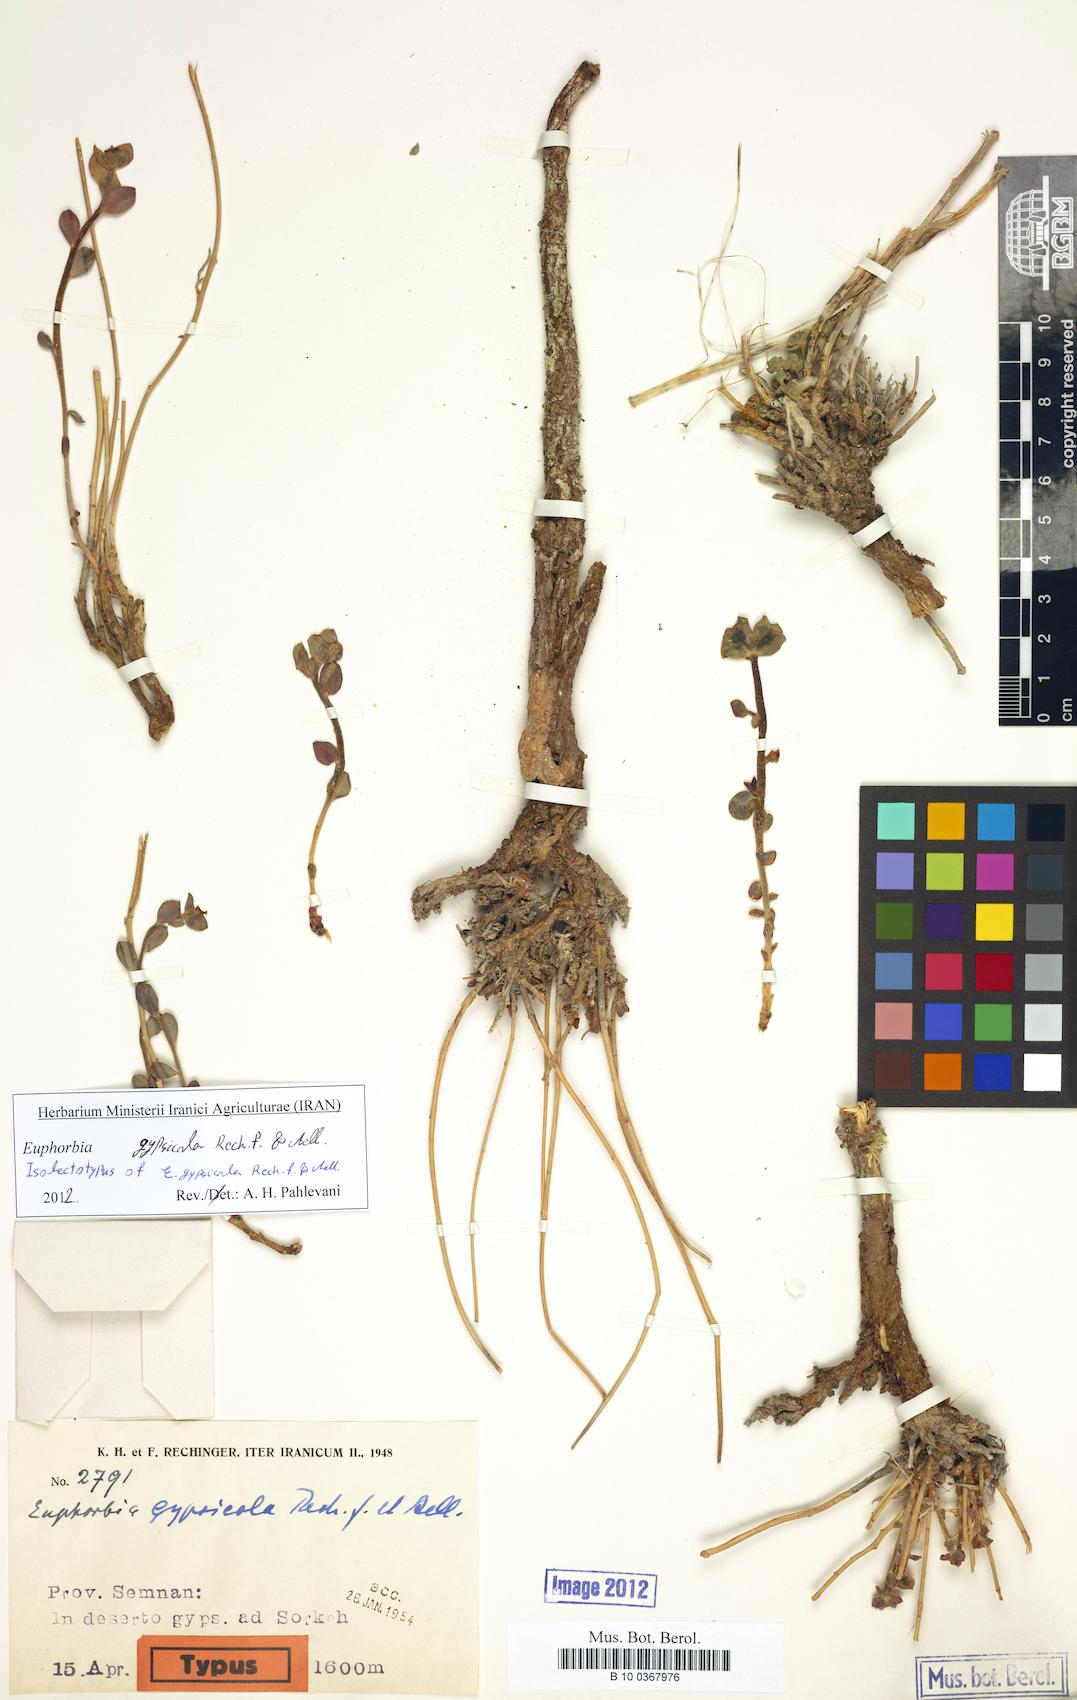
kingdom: Plantae
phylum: Tracheophyta
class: Magnoliopsida
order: Malpighiales
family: Euphorbiaceae
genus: Euphorbia
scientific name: Euphorbia gypsicola
